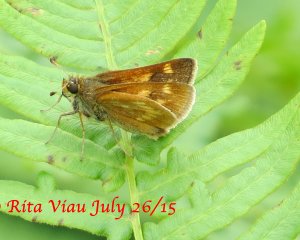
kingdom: Animalia
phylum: Arthropoda
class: Insecta
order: Lepidoptera
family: Hesperiidae
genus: Polites
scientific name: Polites
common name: Long Dash Skipper
